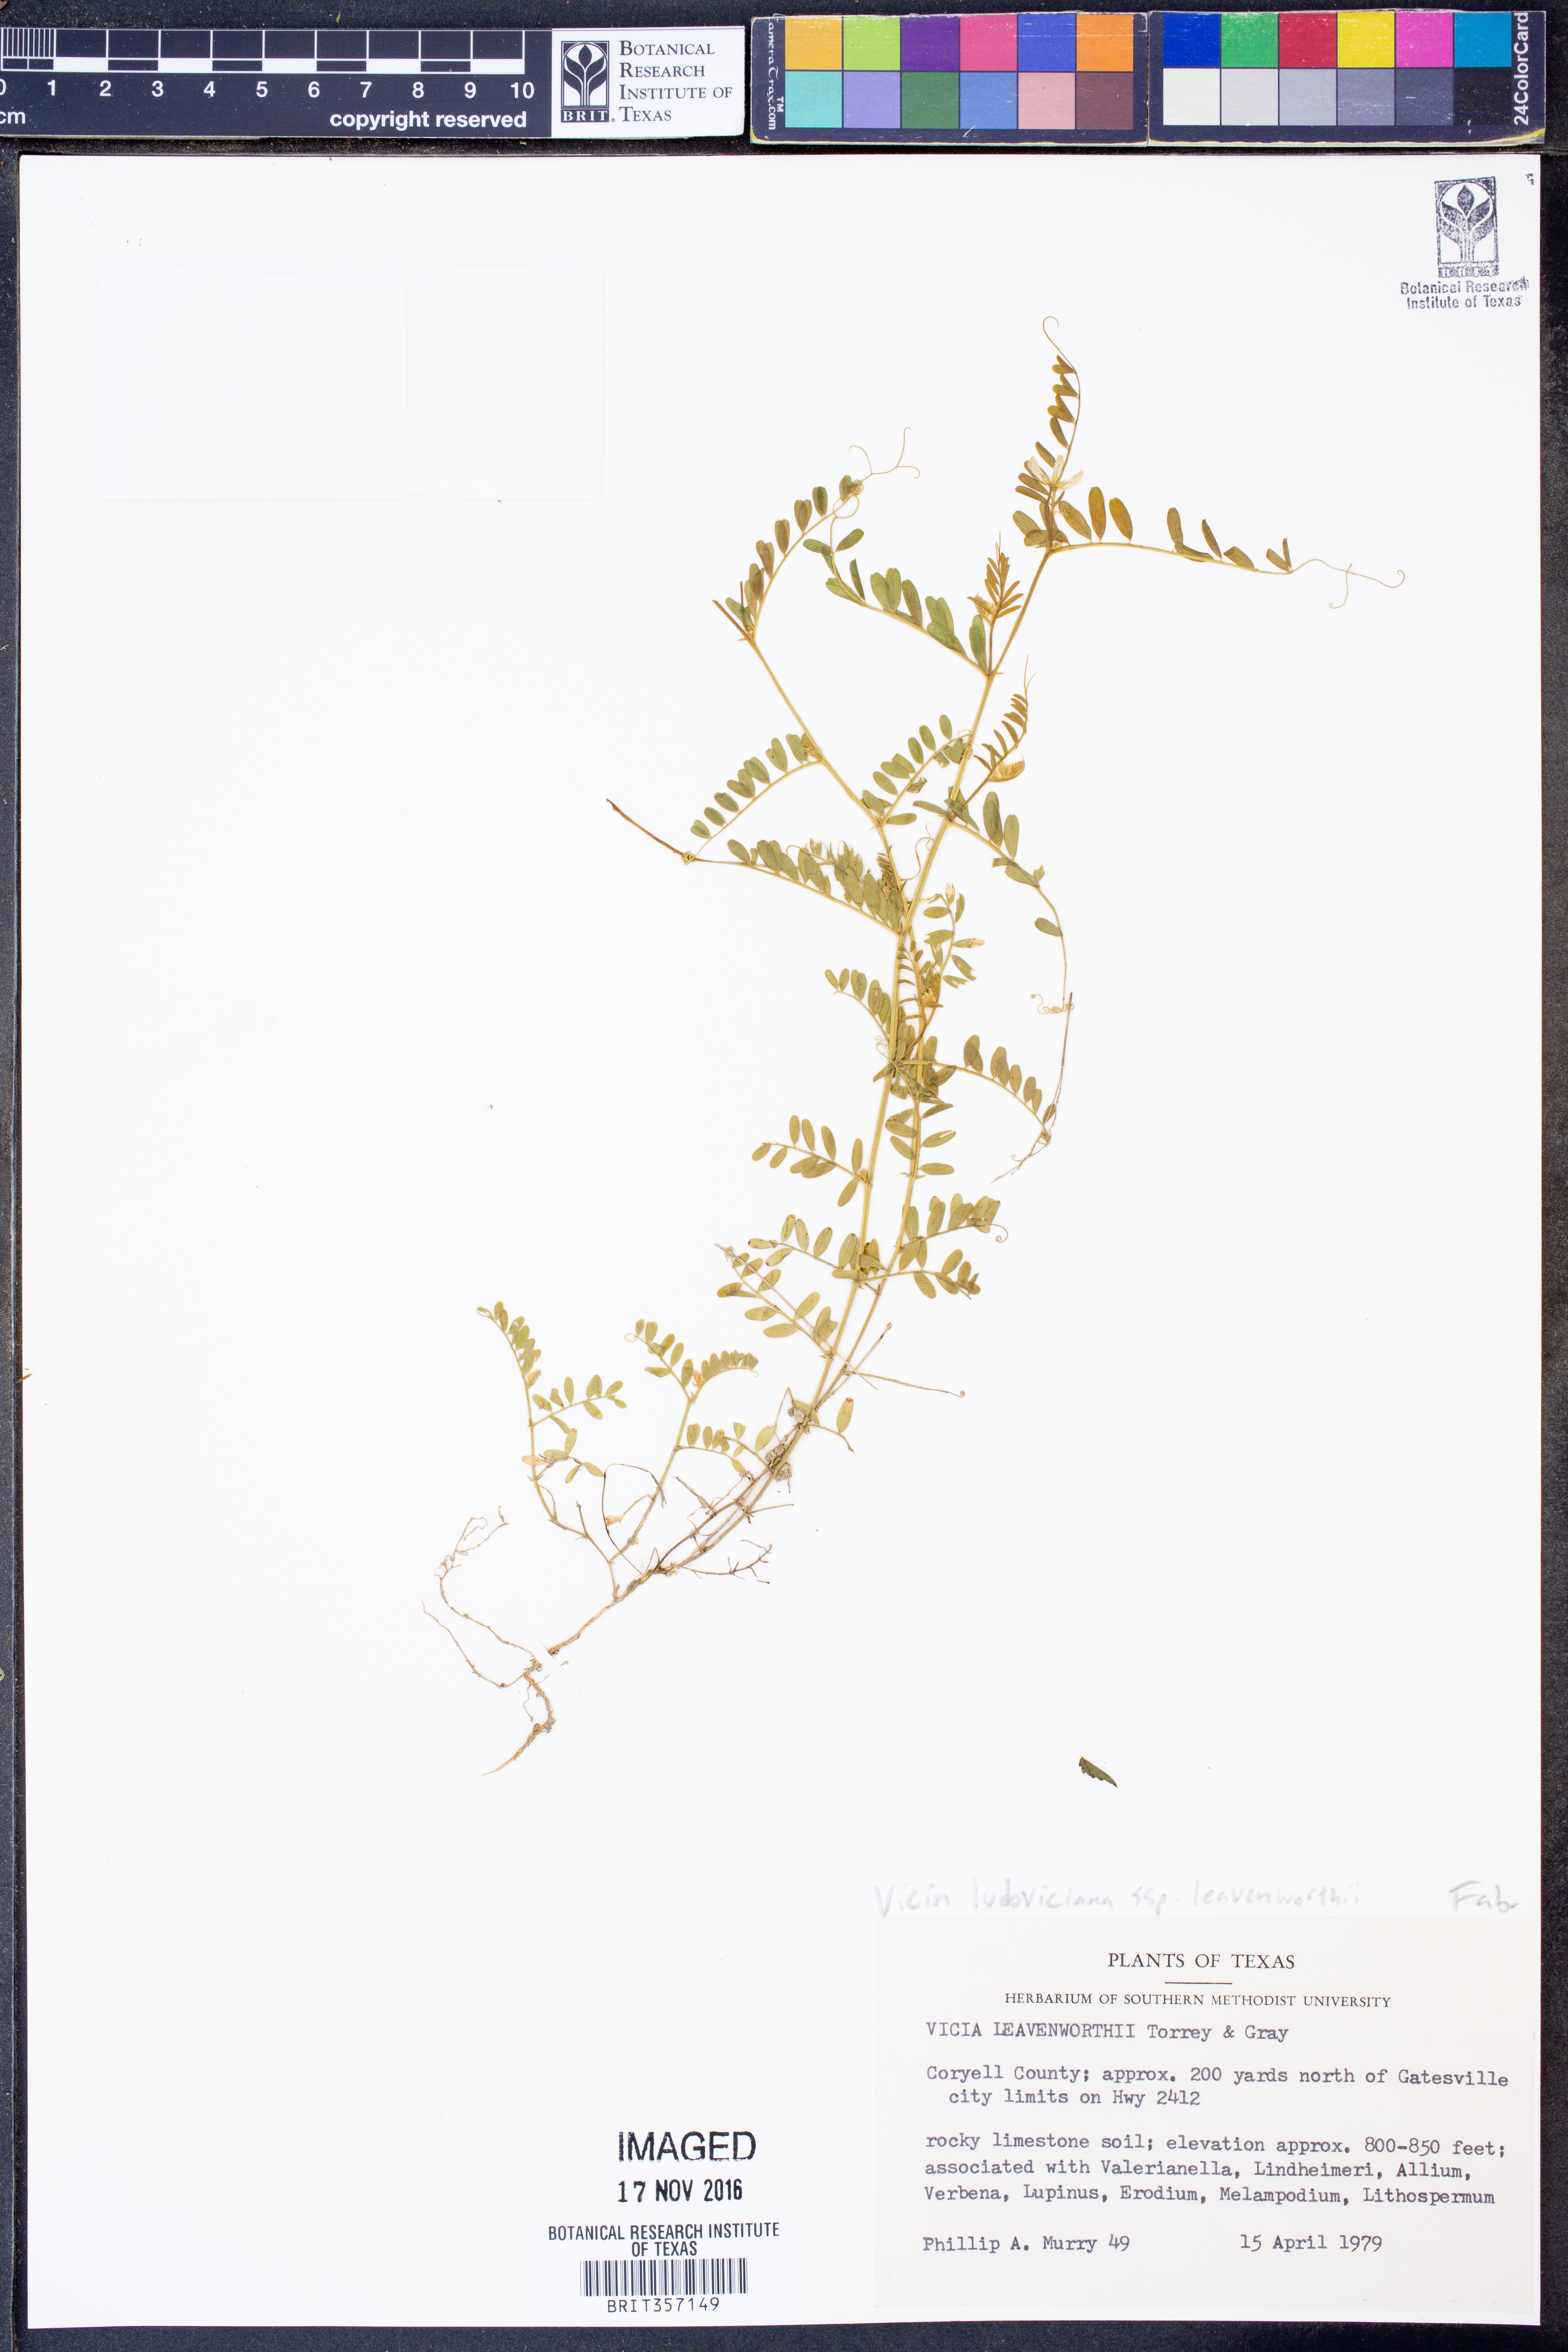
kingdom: Plantae
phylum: Tracheophyta
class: Magnoliopsida
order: Fabales
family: Fabaceae
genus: Vicia
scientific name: Vicia ludoviciana
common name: Louisiana vetch
